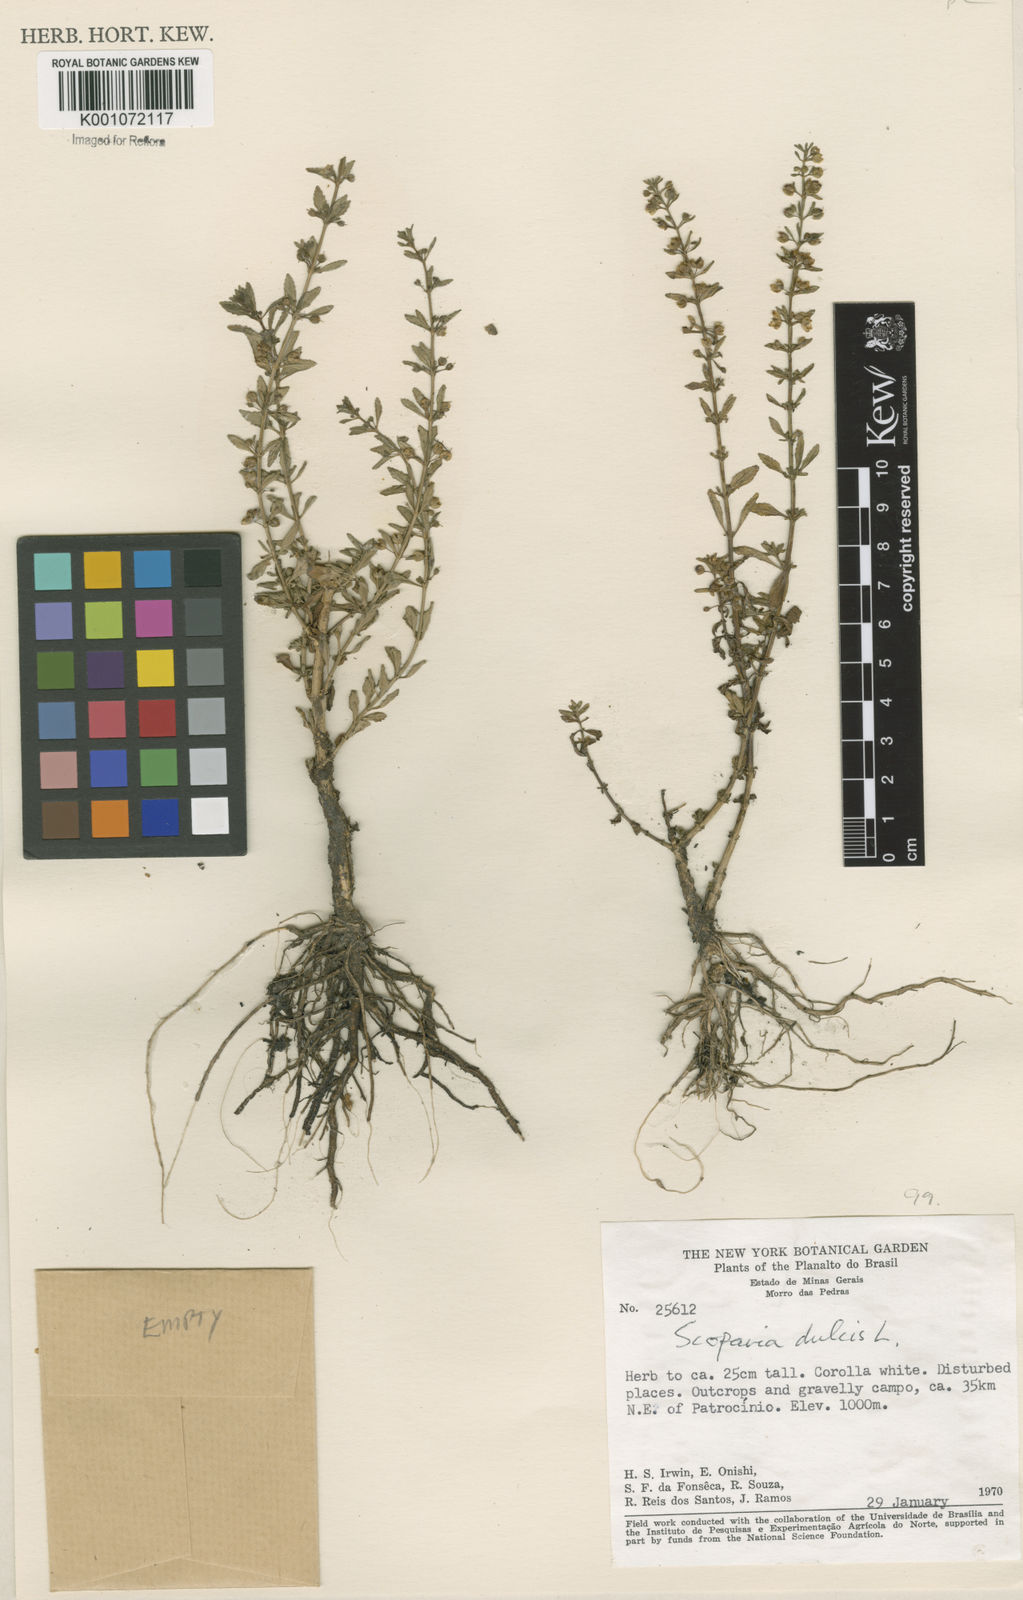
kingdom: Plantae
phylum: Tracheophyta
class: Magnoliopsida
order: Lamiales
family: Plantaginaceae
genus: Scoparia
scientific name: Scoparia dulcis
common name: Scoparia-weed
